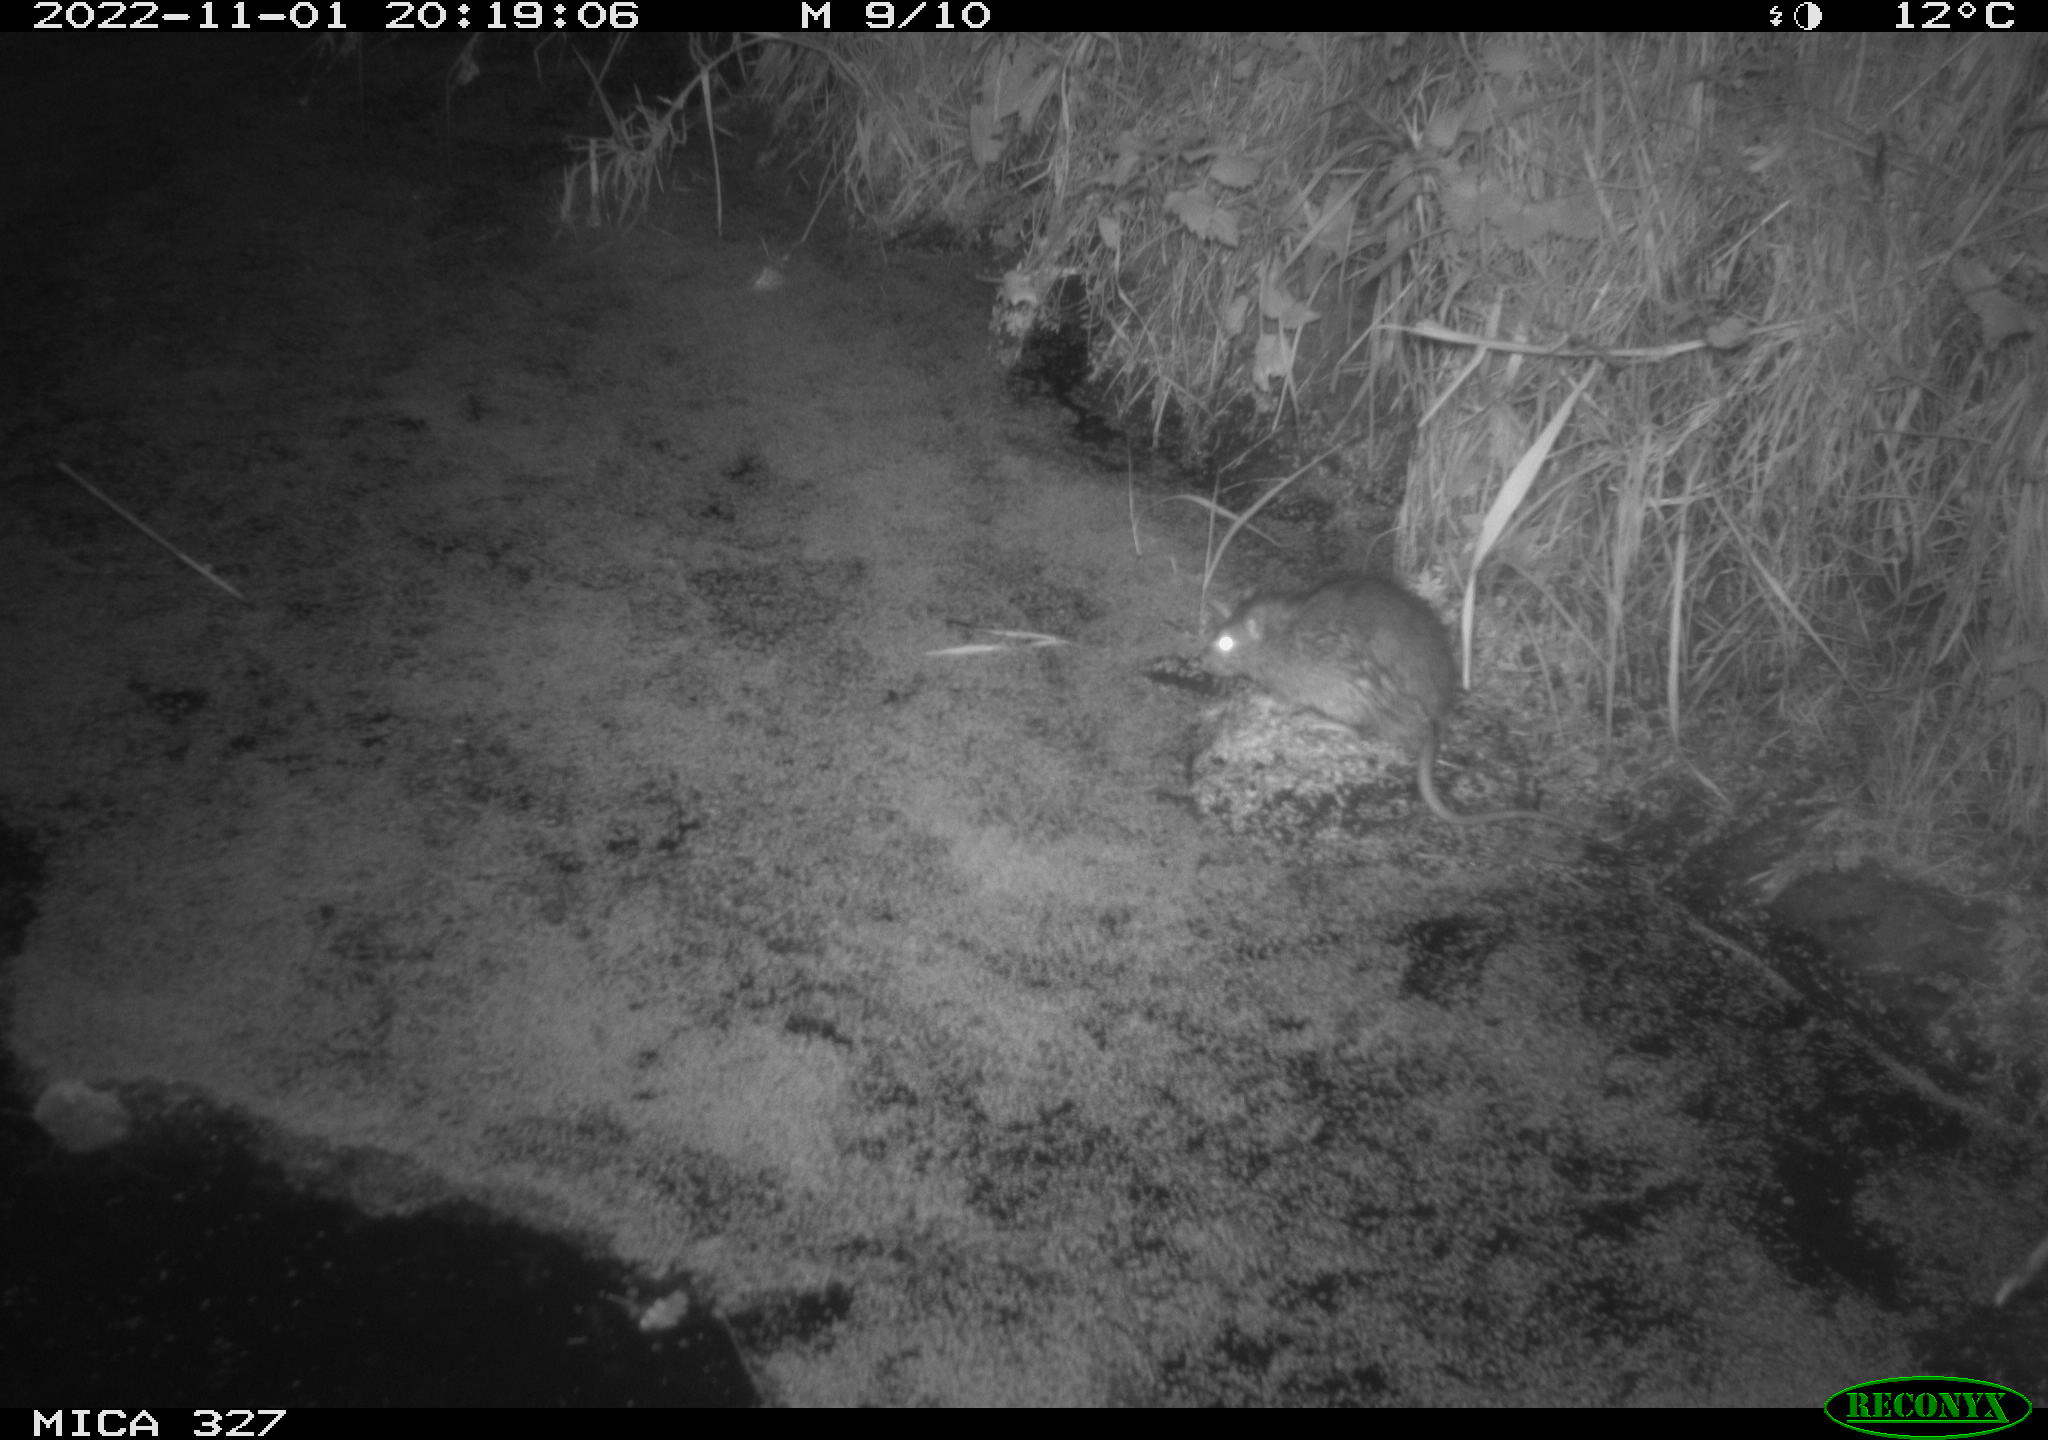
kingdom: Animalia
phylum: Chordata
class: Mammalia
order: Rodentia
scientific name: Rodentia
